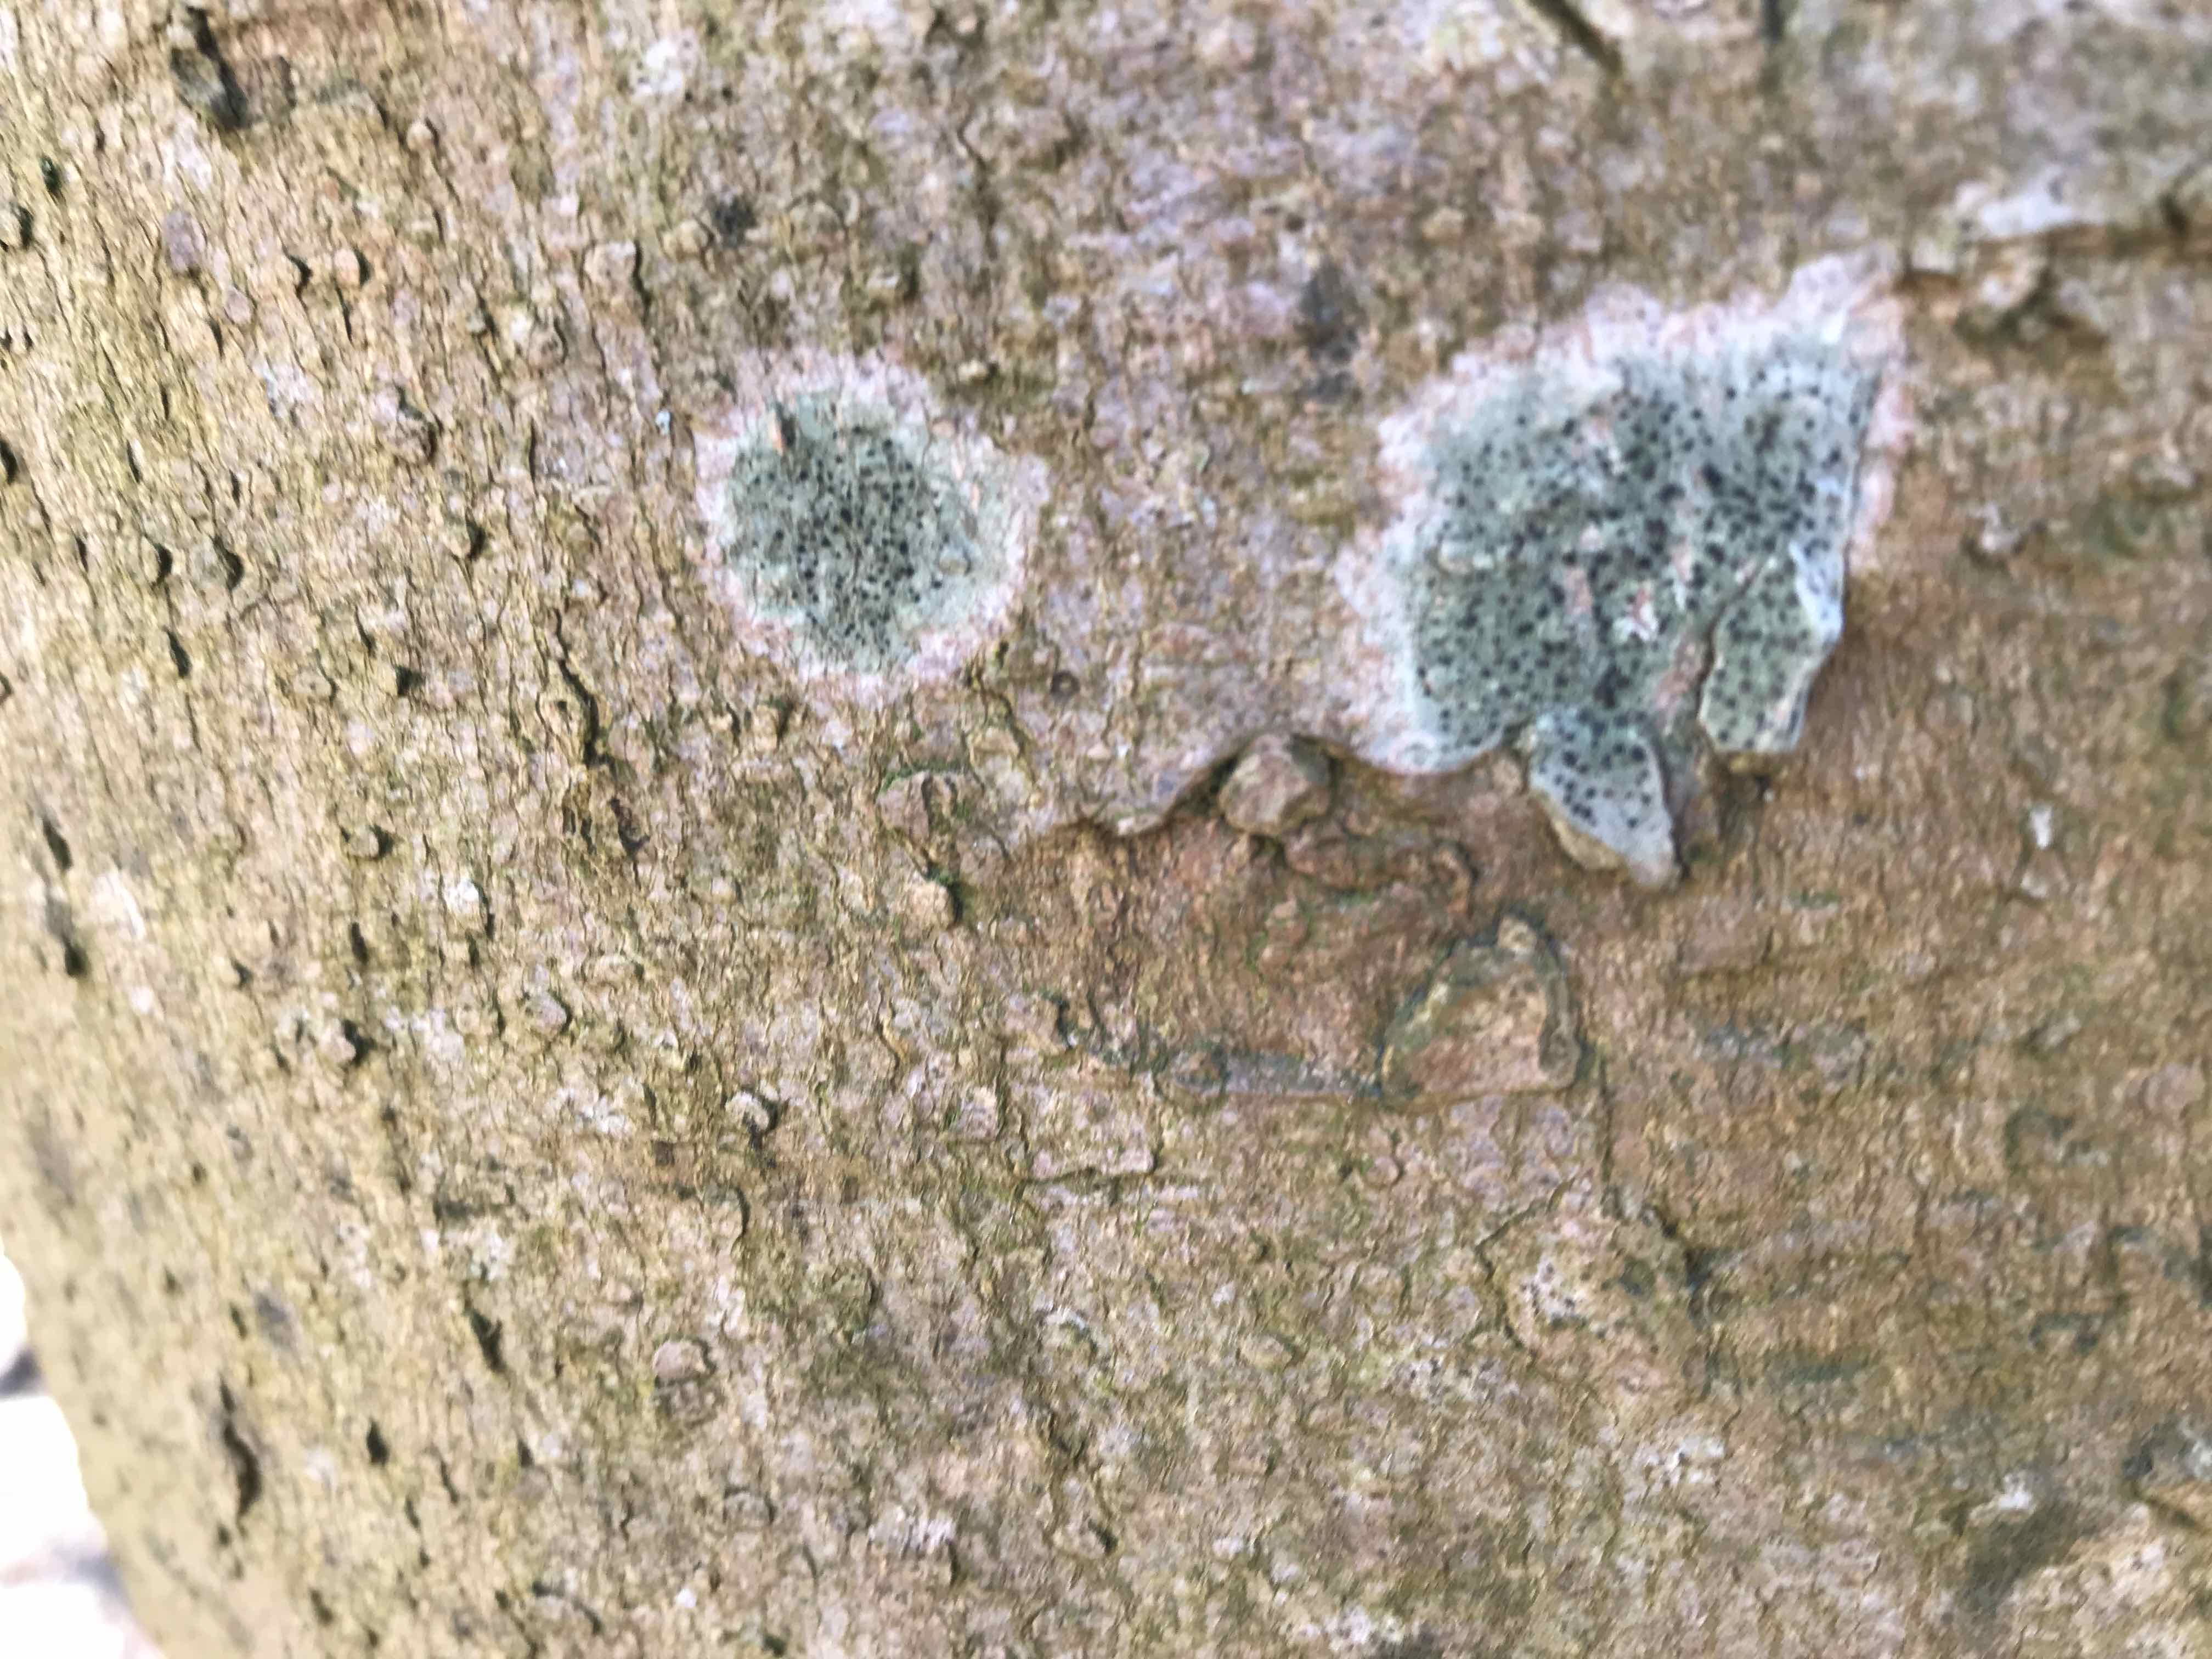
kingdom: Fungi
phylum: Ascomycota
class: Lecanoromycetes
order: Lecanorales
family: Lecanoraceae
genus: Lecidella
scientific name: Lecidella elaeochroma
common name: grågrøn skivelav
